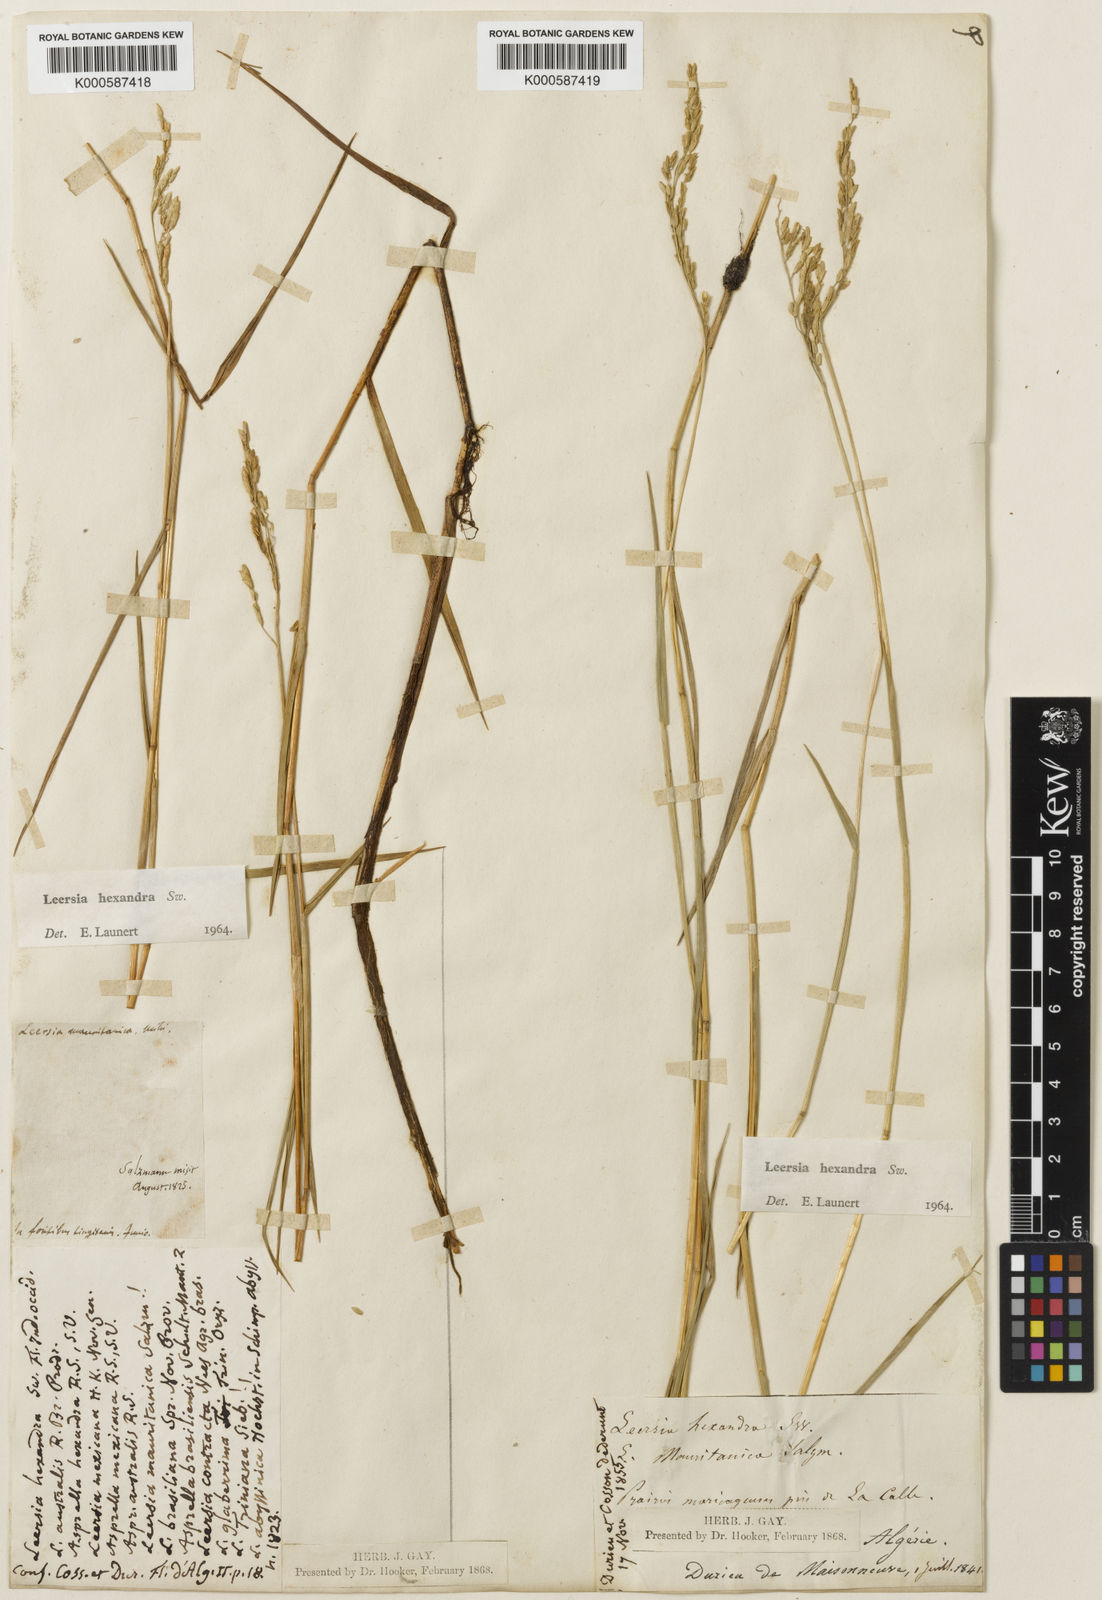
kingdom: Plantae
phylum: Tracheophyta
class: Liliopsida
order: Poales
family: Poaceae
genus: Leersia
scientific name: Leersia hexandra
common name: Southern cut grass
